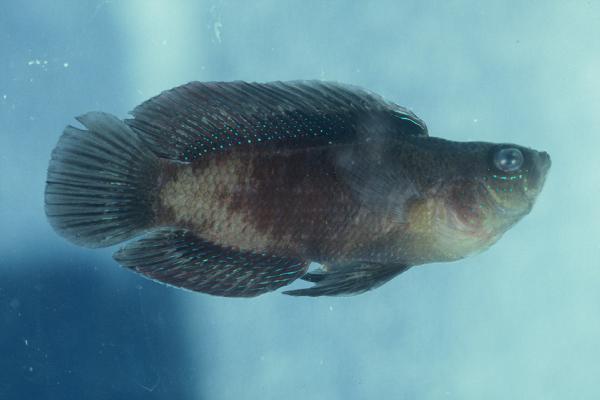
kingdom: Animalia
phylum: Chordata
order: Perciformes
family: Pseudochromidae
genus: Assiculus
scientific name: Assiculus punctatus
